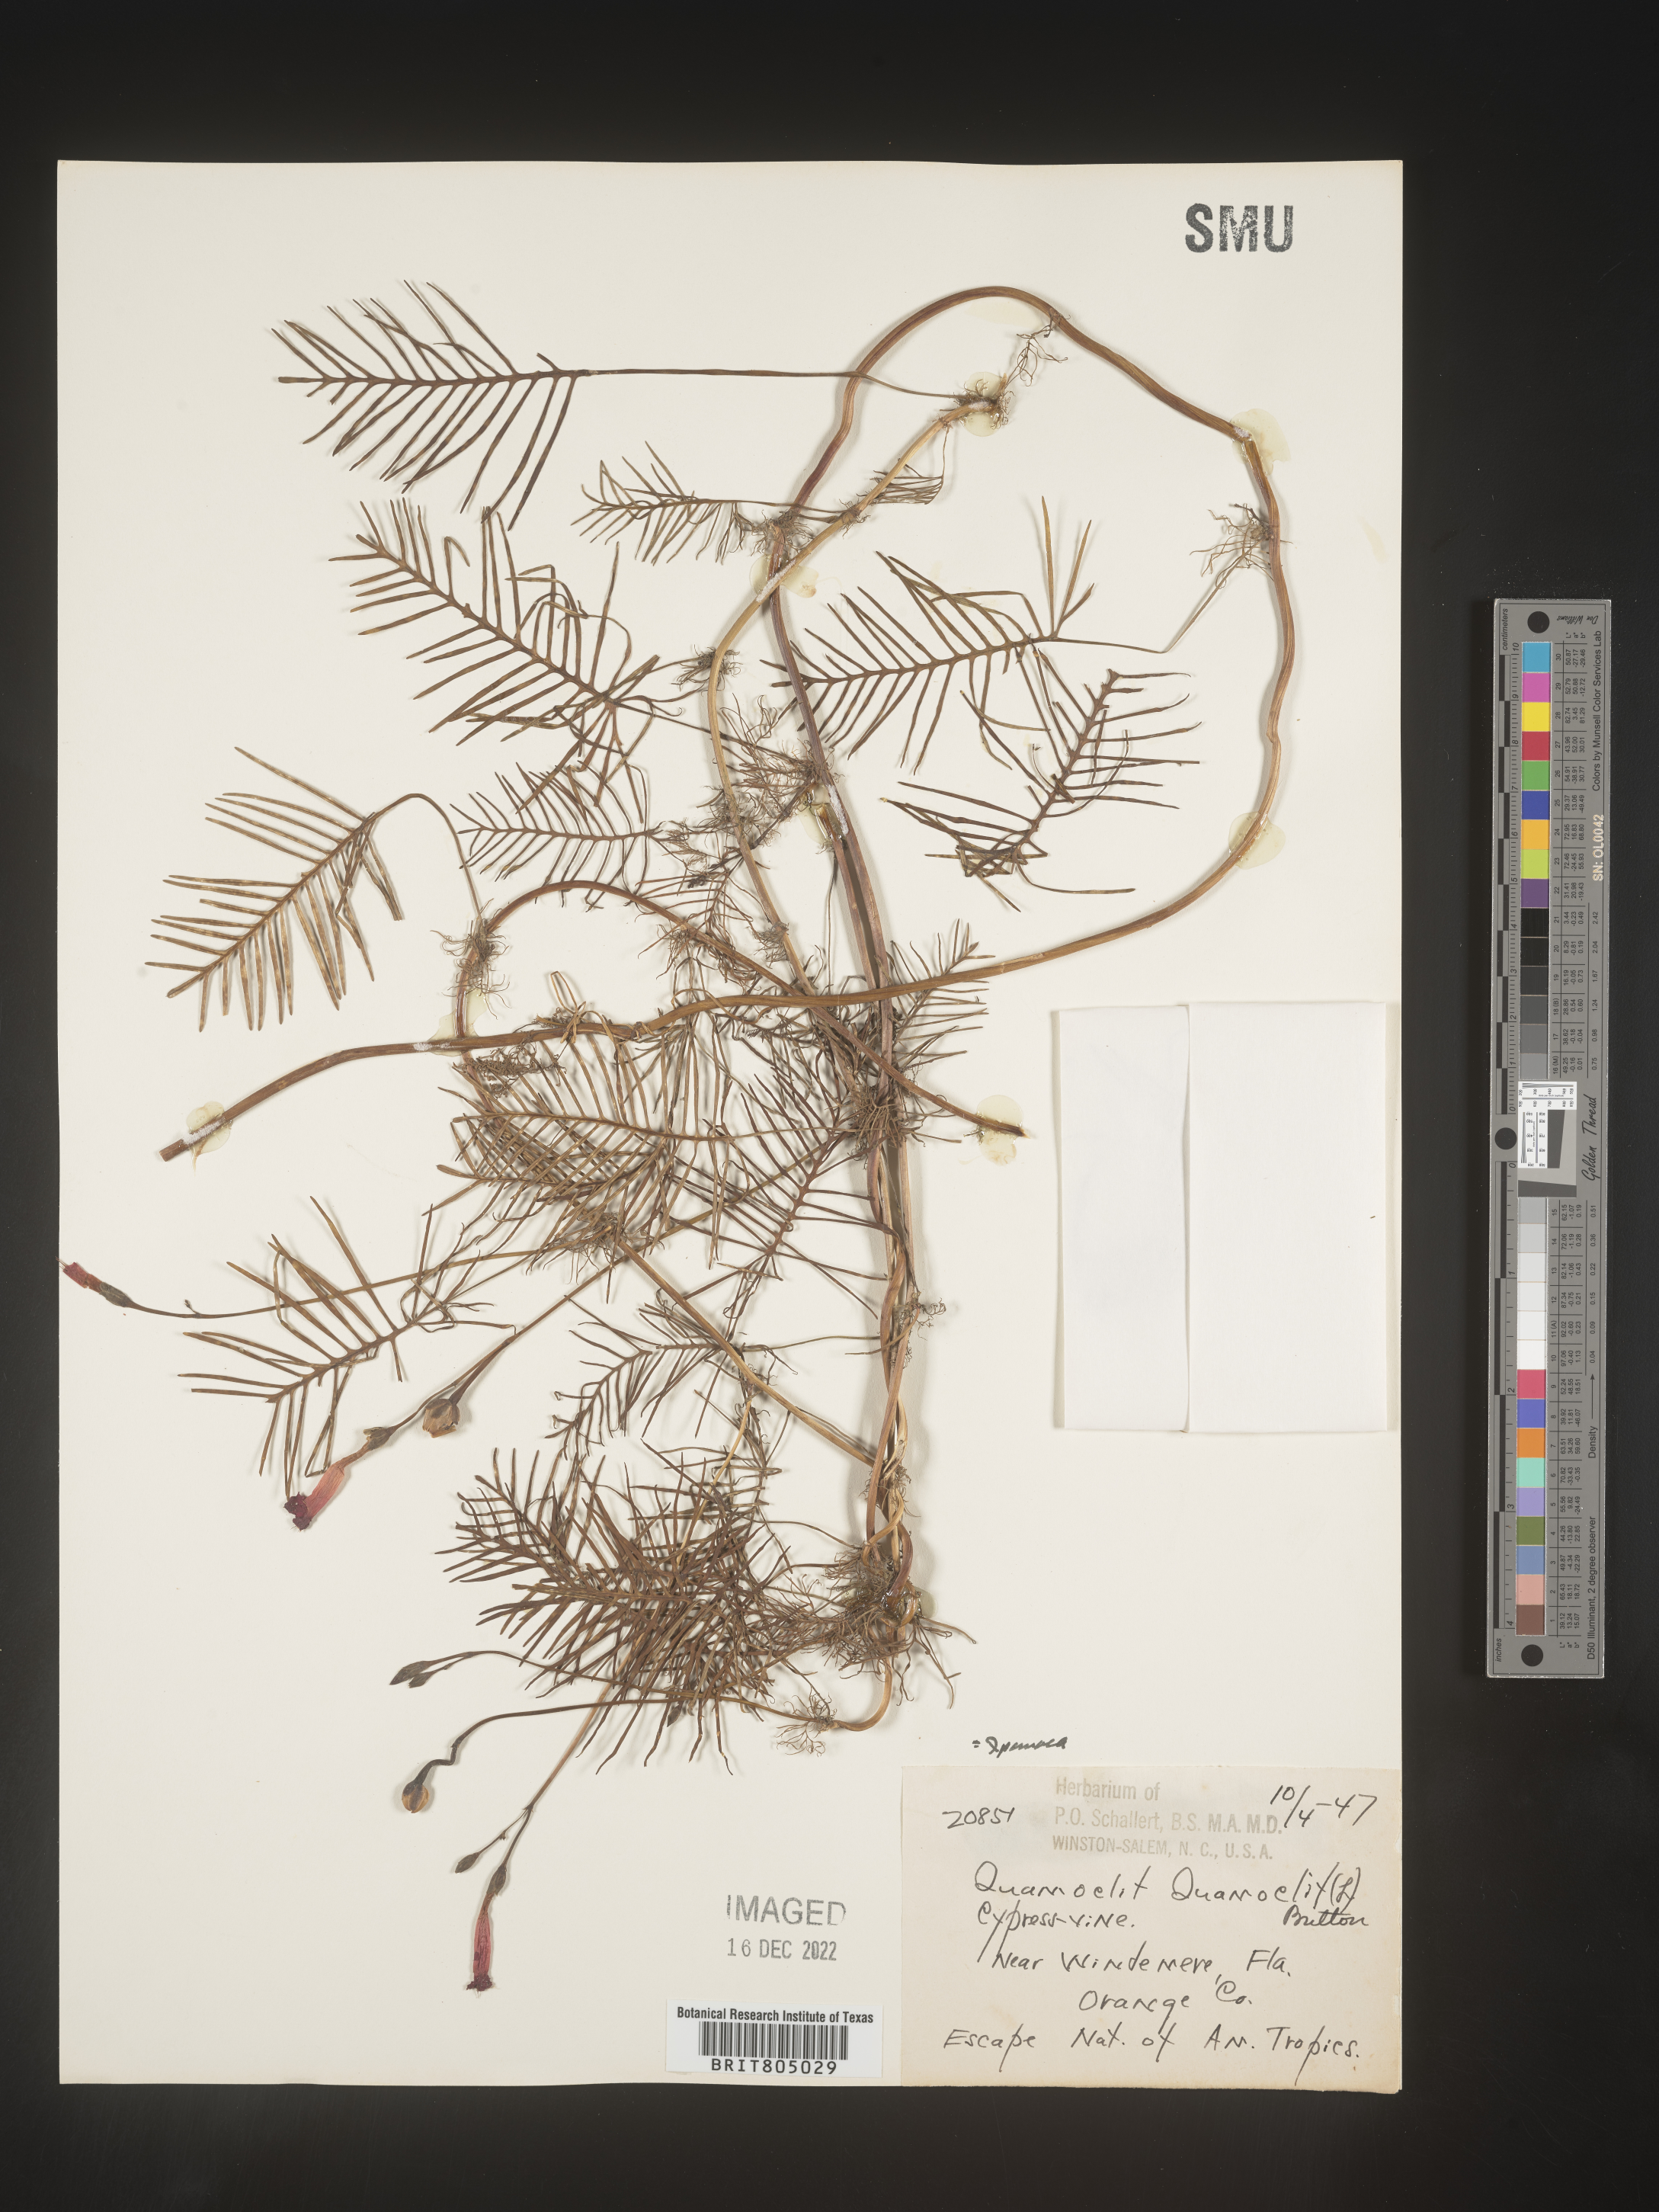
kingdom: Plantae
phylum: Tracheophyta
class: Magnoliopsida
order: Solanales
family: Convolvulaceae
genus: Ipomoea
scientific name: Ipomoea quamoclit
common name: Cypress vine
